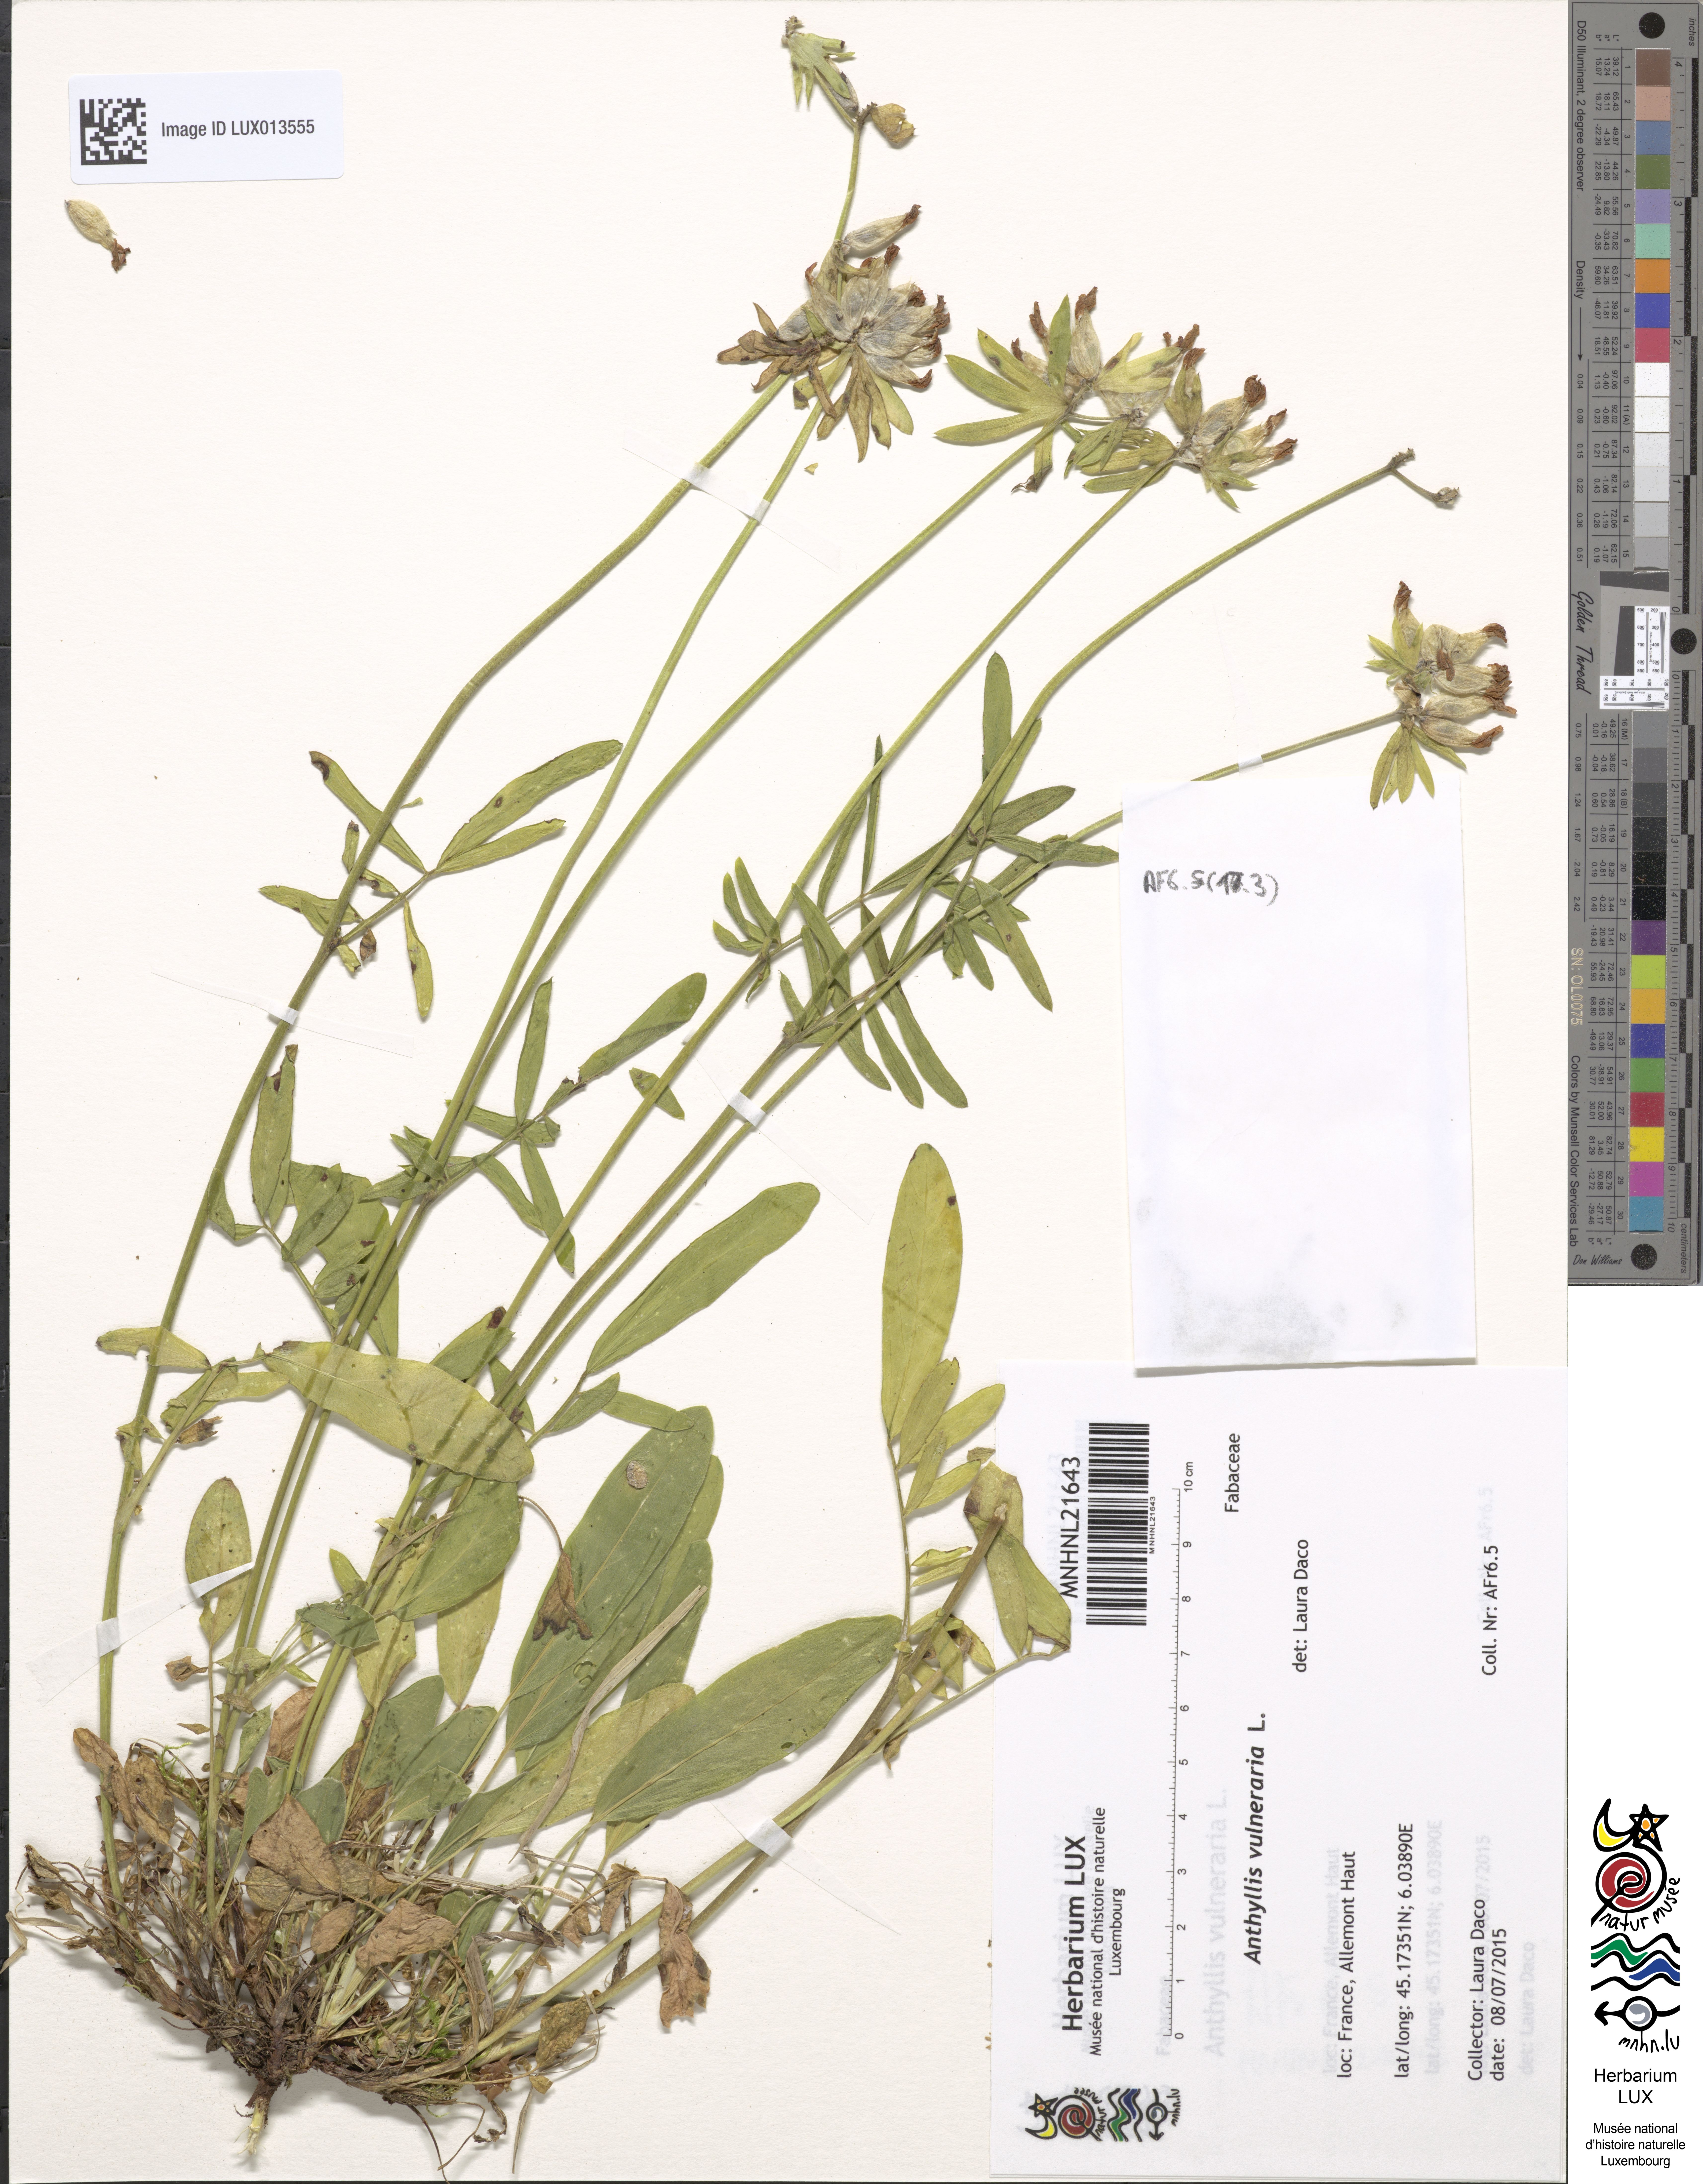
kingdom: Plantae
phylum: Tracheophyta
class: Magnoliopsida
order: Fabales
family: Fabaceae
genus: Anthyllis
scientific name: Anthyllis vulneraria
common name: Kidney vetch
